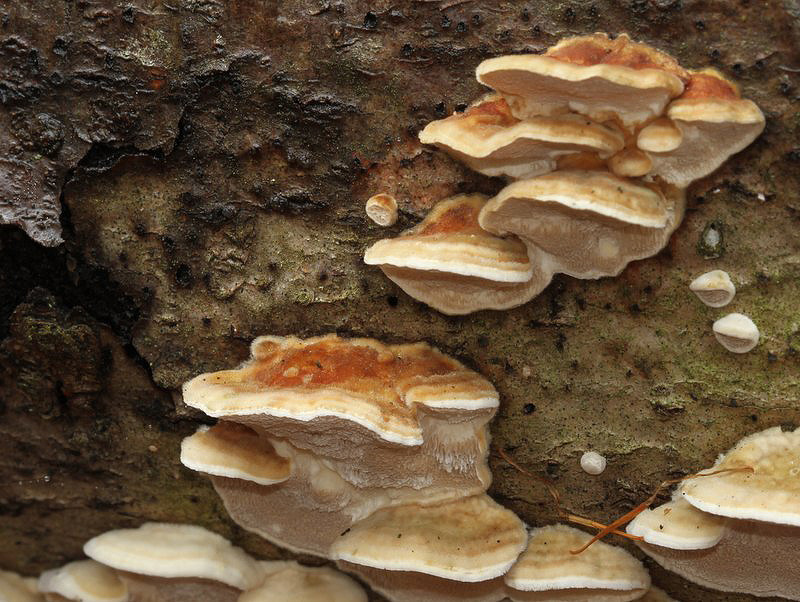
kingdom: Fungi
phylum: Basidiomycota
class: Agaricomycetes
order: Polyporales
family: Polyporaceae
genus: Trametes
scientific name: Trametes ochracea
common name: bæltet læderporesvamp
